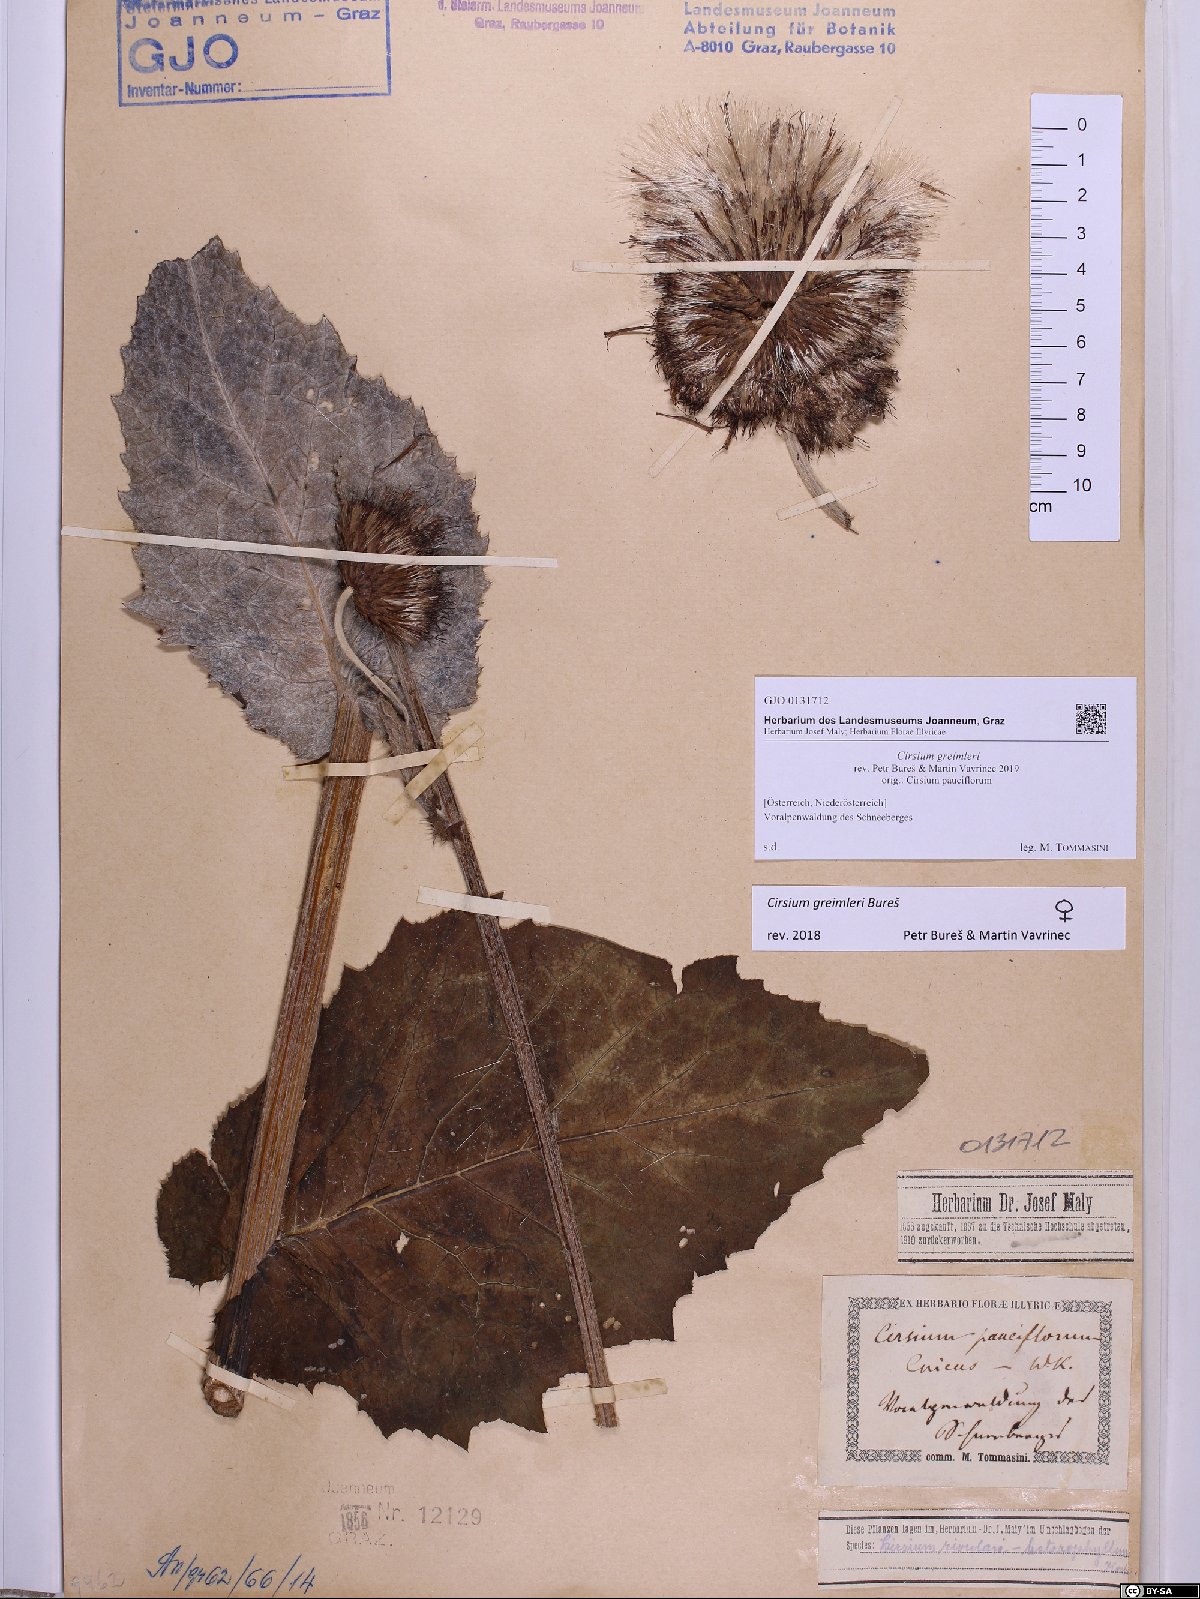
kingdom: Plantae
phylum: Tracheophyta
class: Magnoliopsida
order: Asterales
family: Asteraceae
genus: Cirsium
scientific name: Cirsium greimleri
